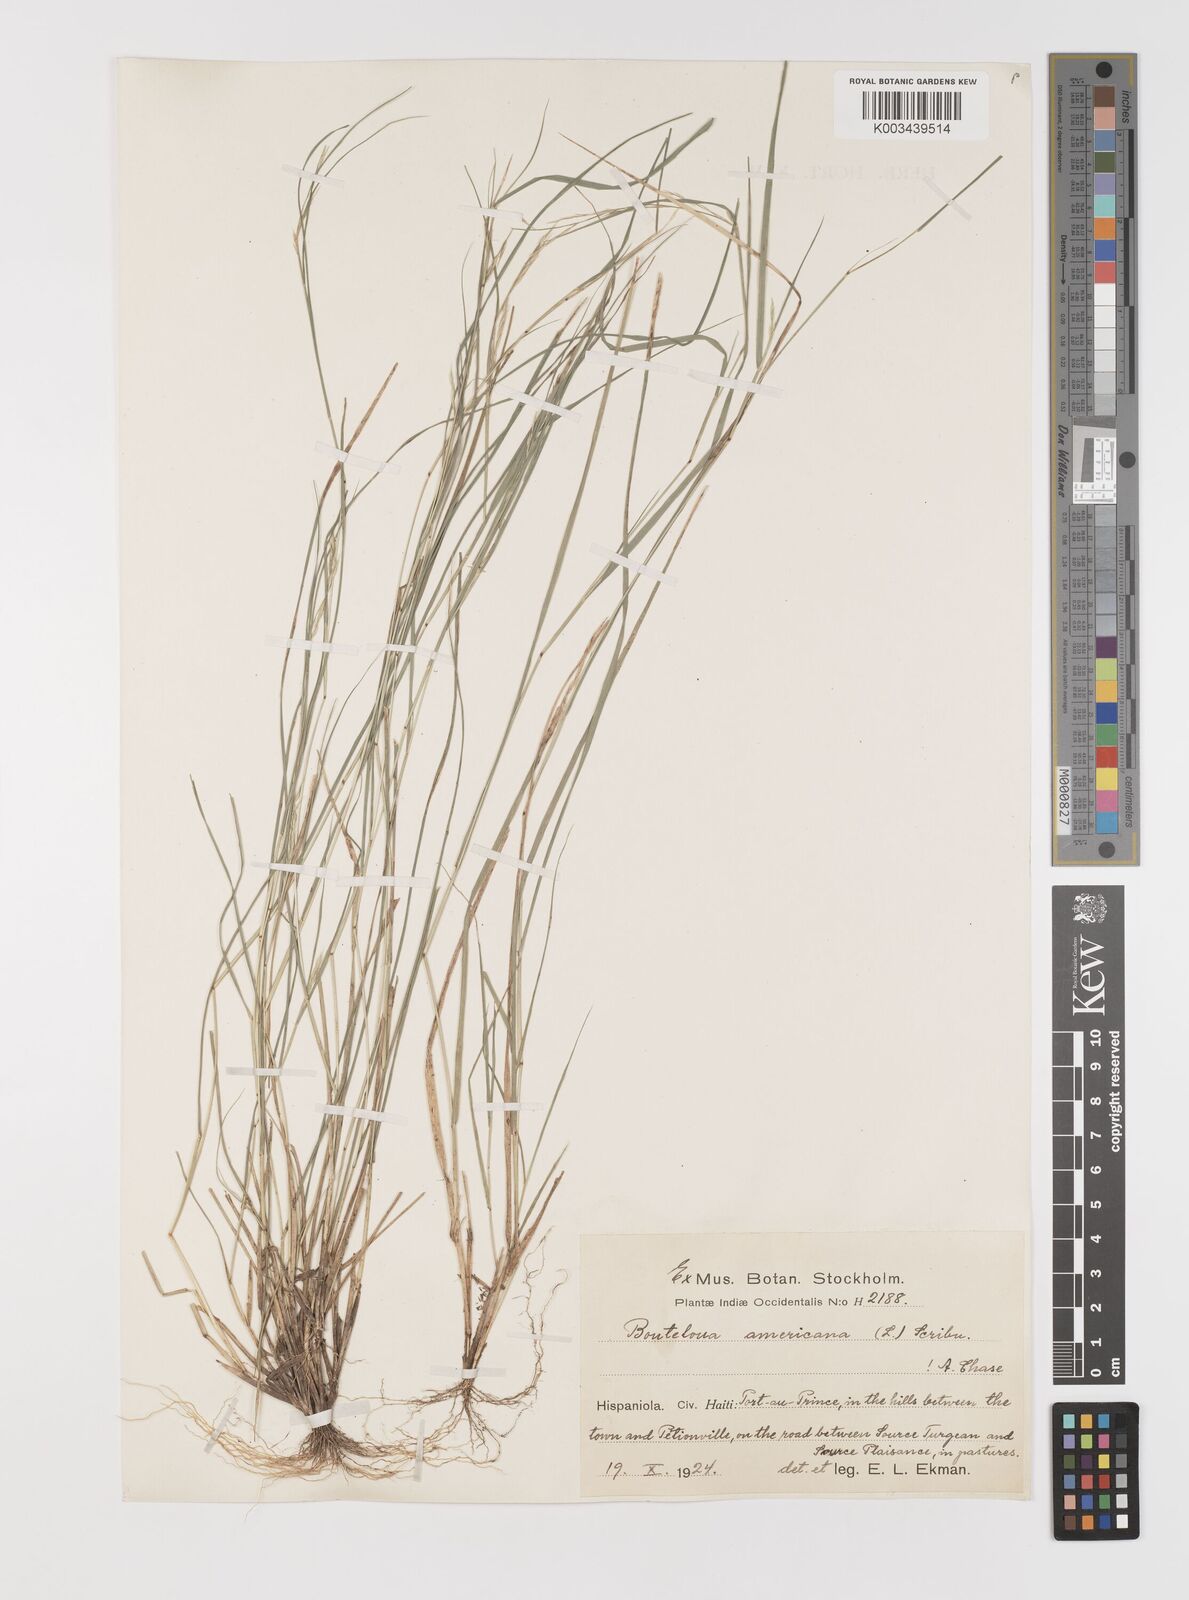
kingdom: Plantae
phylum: Tracheophyta
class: Liliopsida
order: Poales
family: Poaceae
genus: Bouteloua
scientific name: Bouteloua americana
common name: Mule grass
